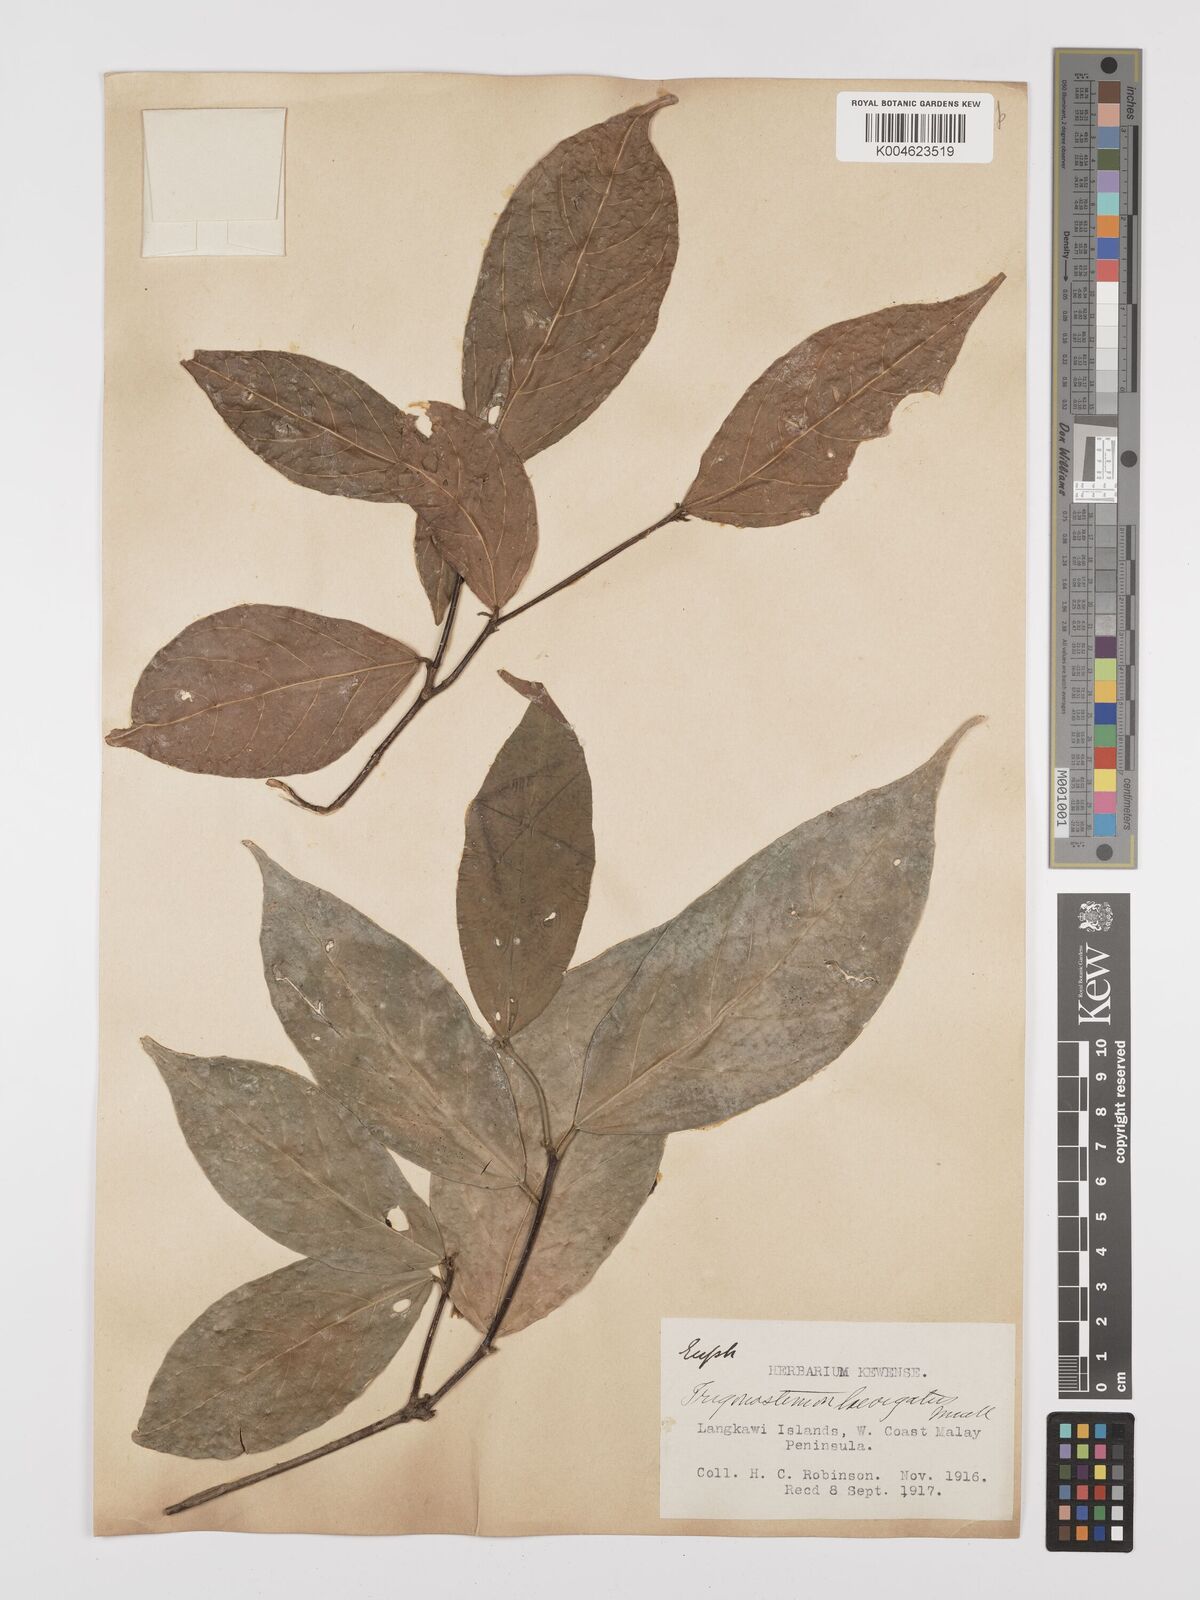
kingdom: Plantae
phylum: Tracheophyta
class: Magnoliopsida
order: Malpighiales
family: Euphorbiaceae
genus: Trigonostemon
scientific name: Trigonostemon laevigatus
